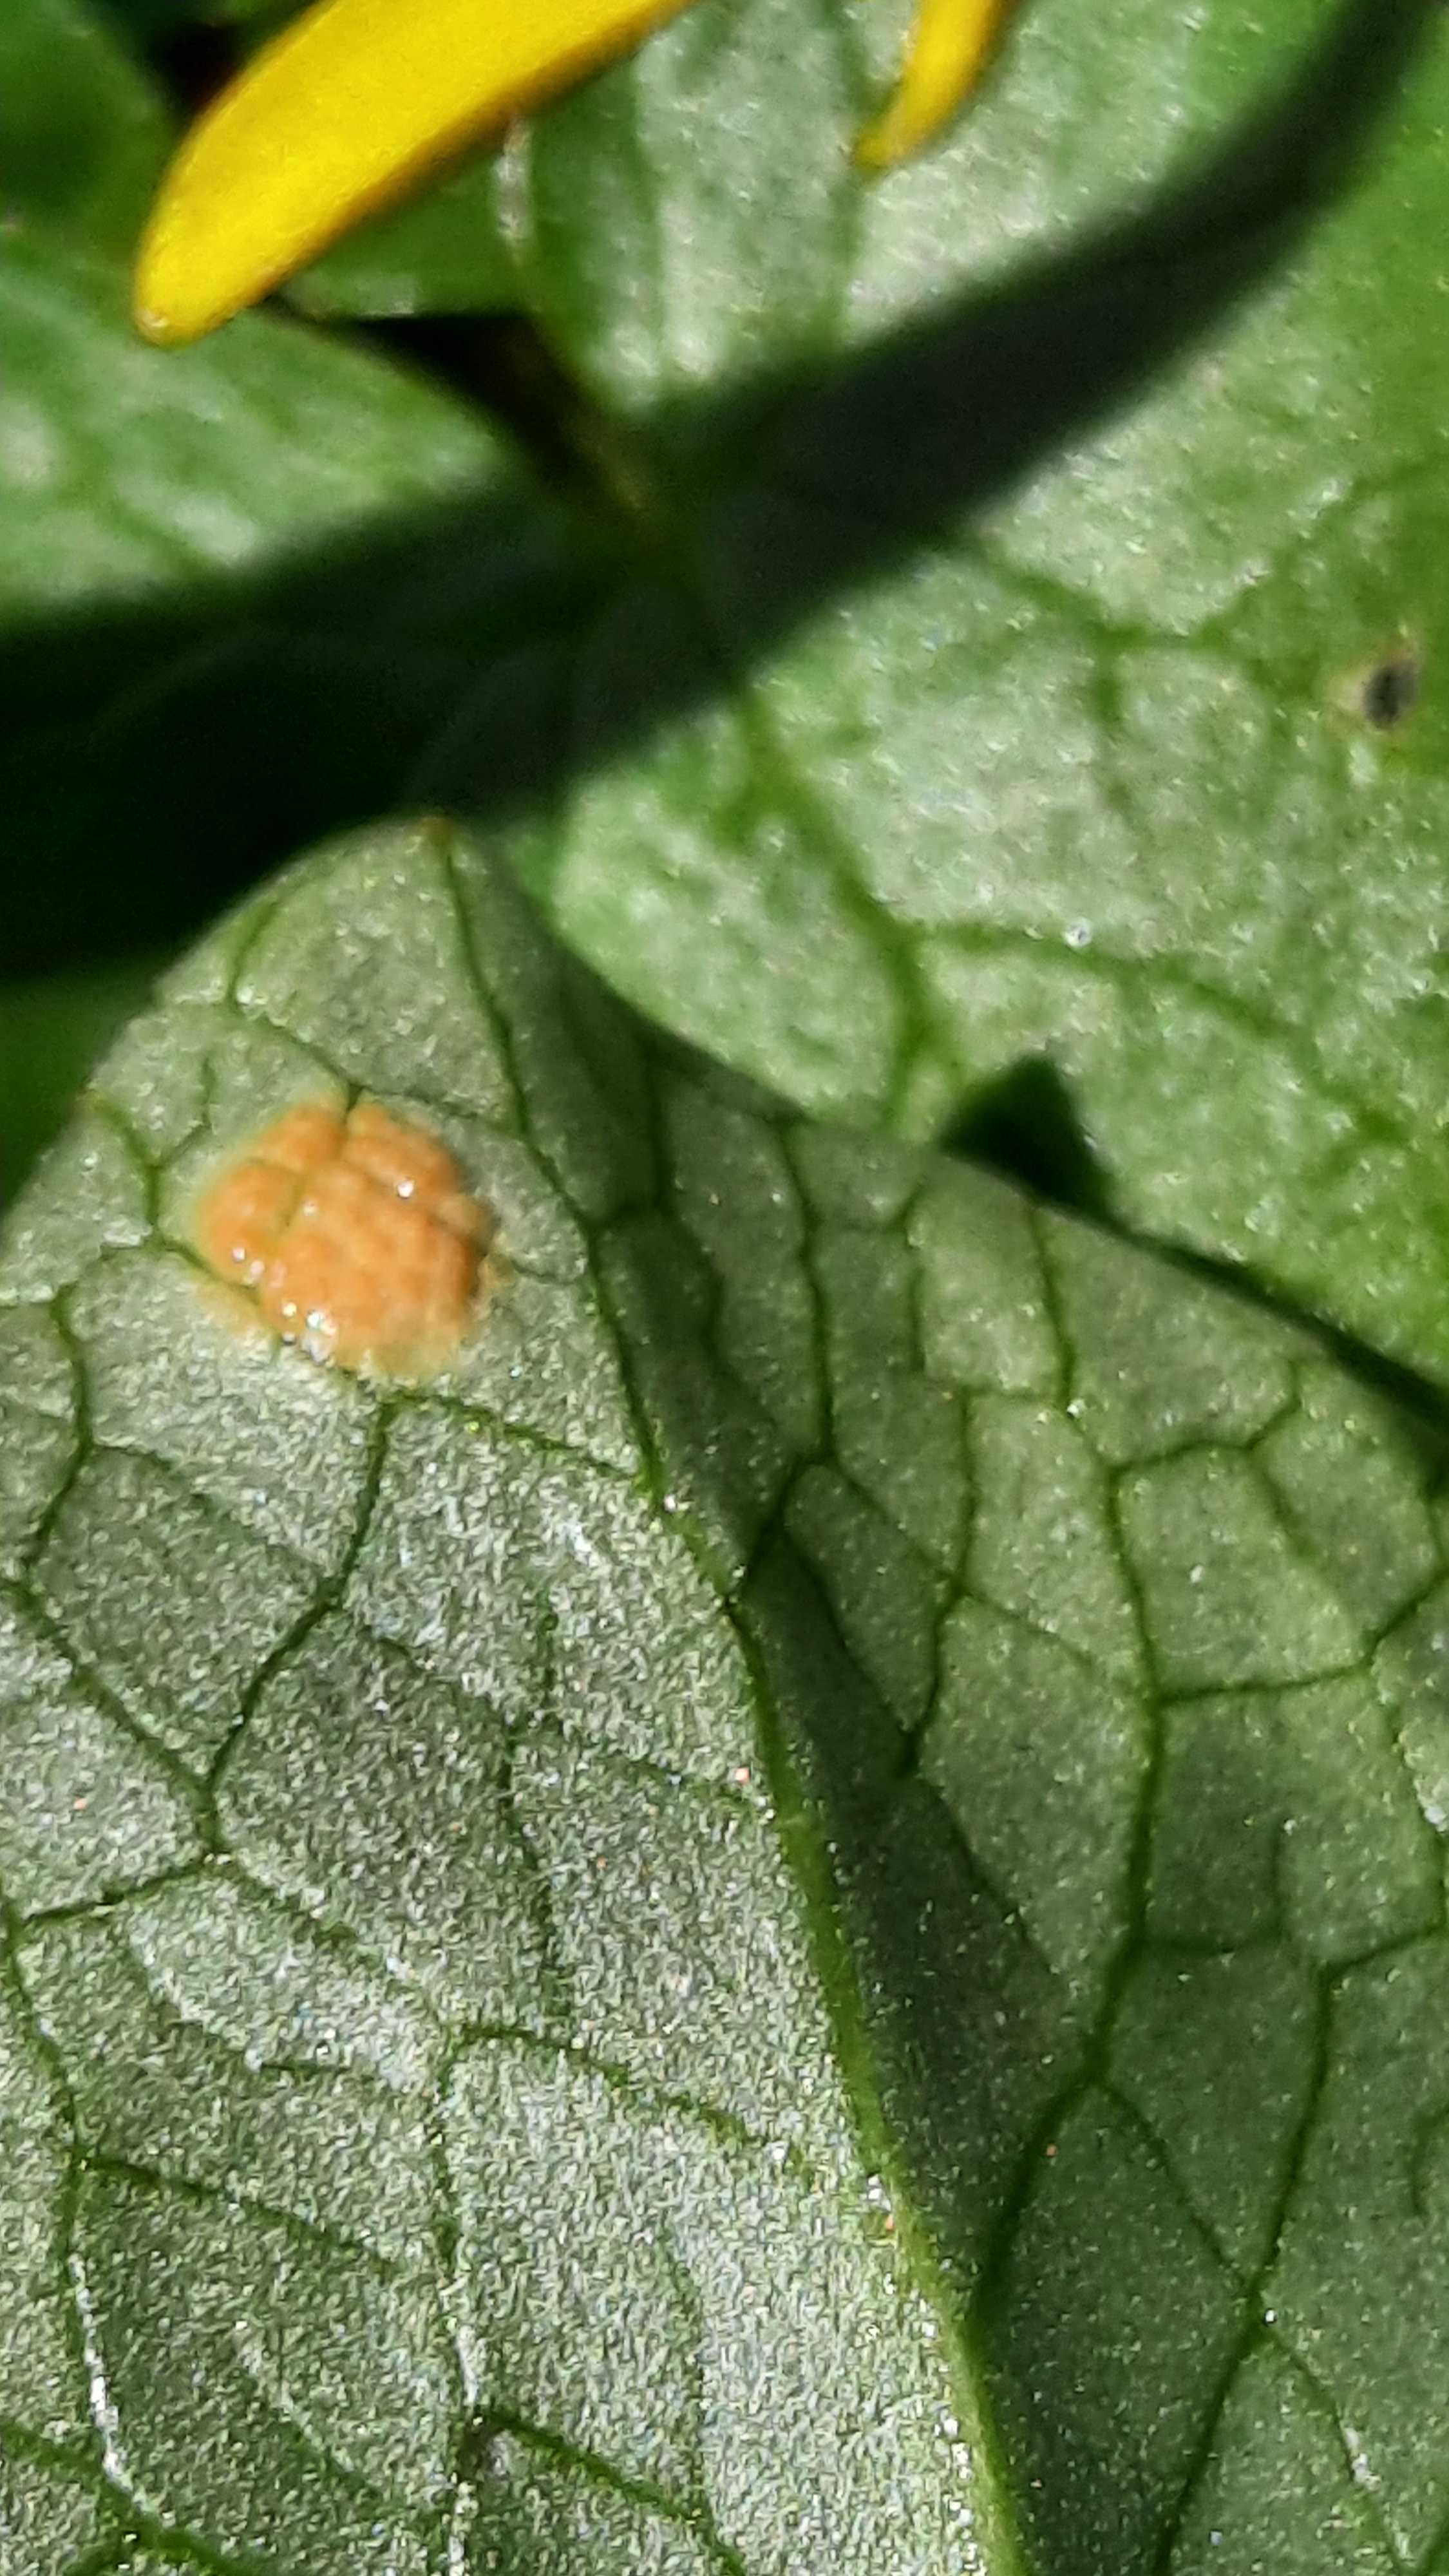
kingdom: Fungi
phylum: Basidiomycota
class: Pucciniomycetes
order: Pucciniales
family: Pucciniaceae
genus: Uromyces
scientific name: Uromyces ficariae
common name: vorterod-encellerust
